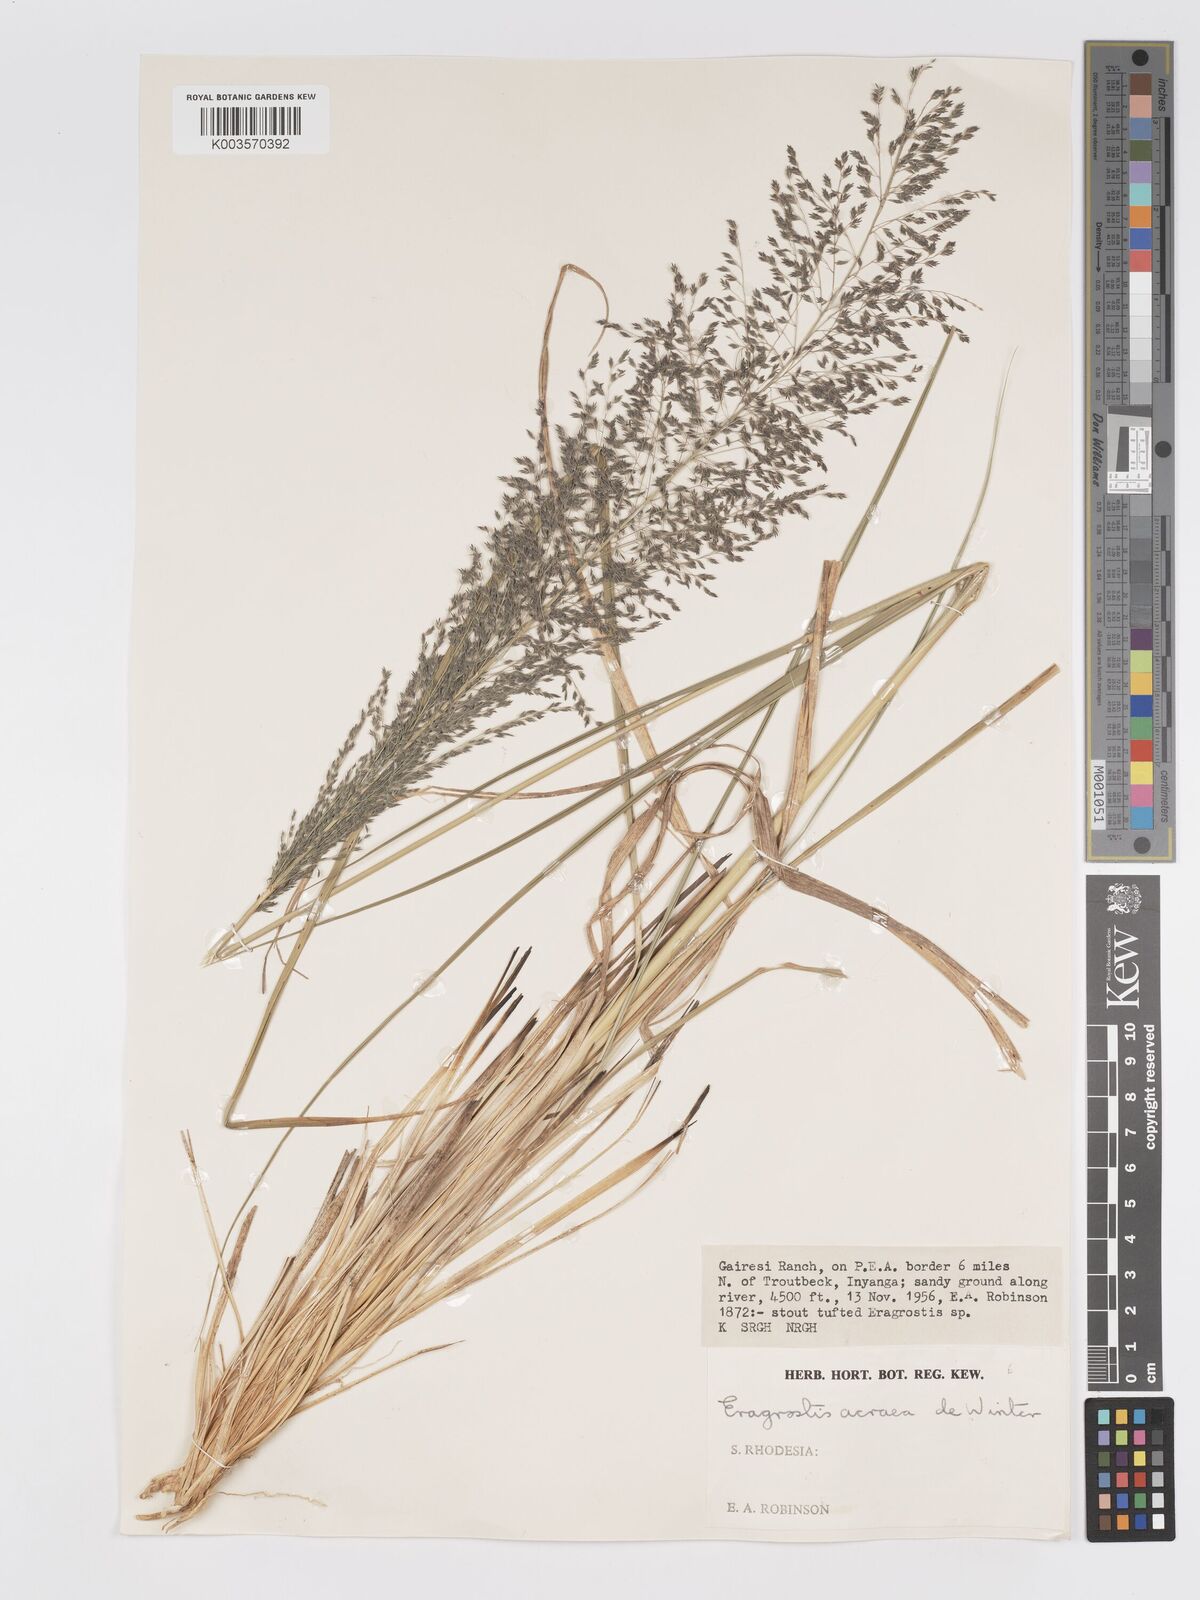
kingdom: Plantae
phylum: Tracheophyta
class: Liliopsida
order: Poales
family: Poaceae
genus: Eragrostis
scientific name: Eragrostis acraea
